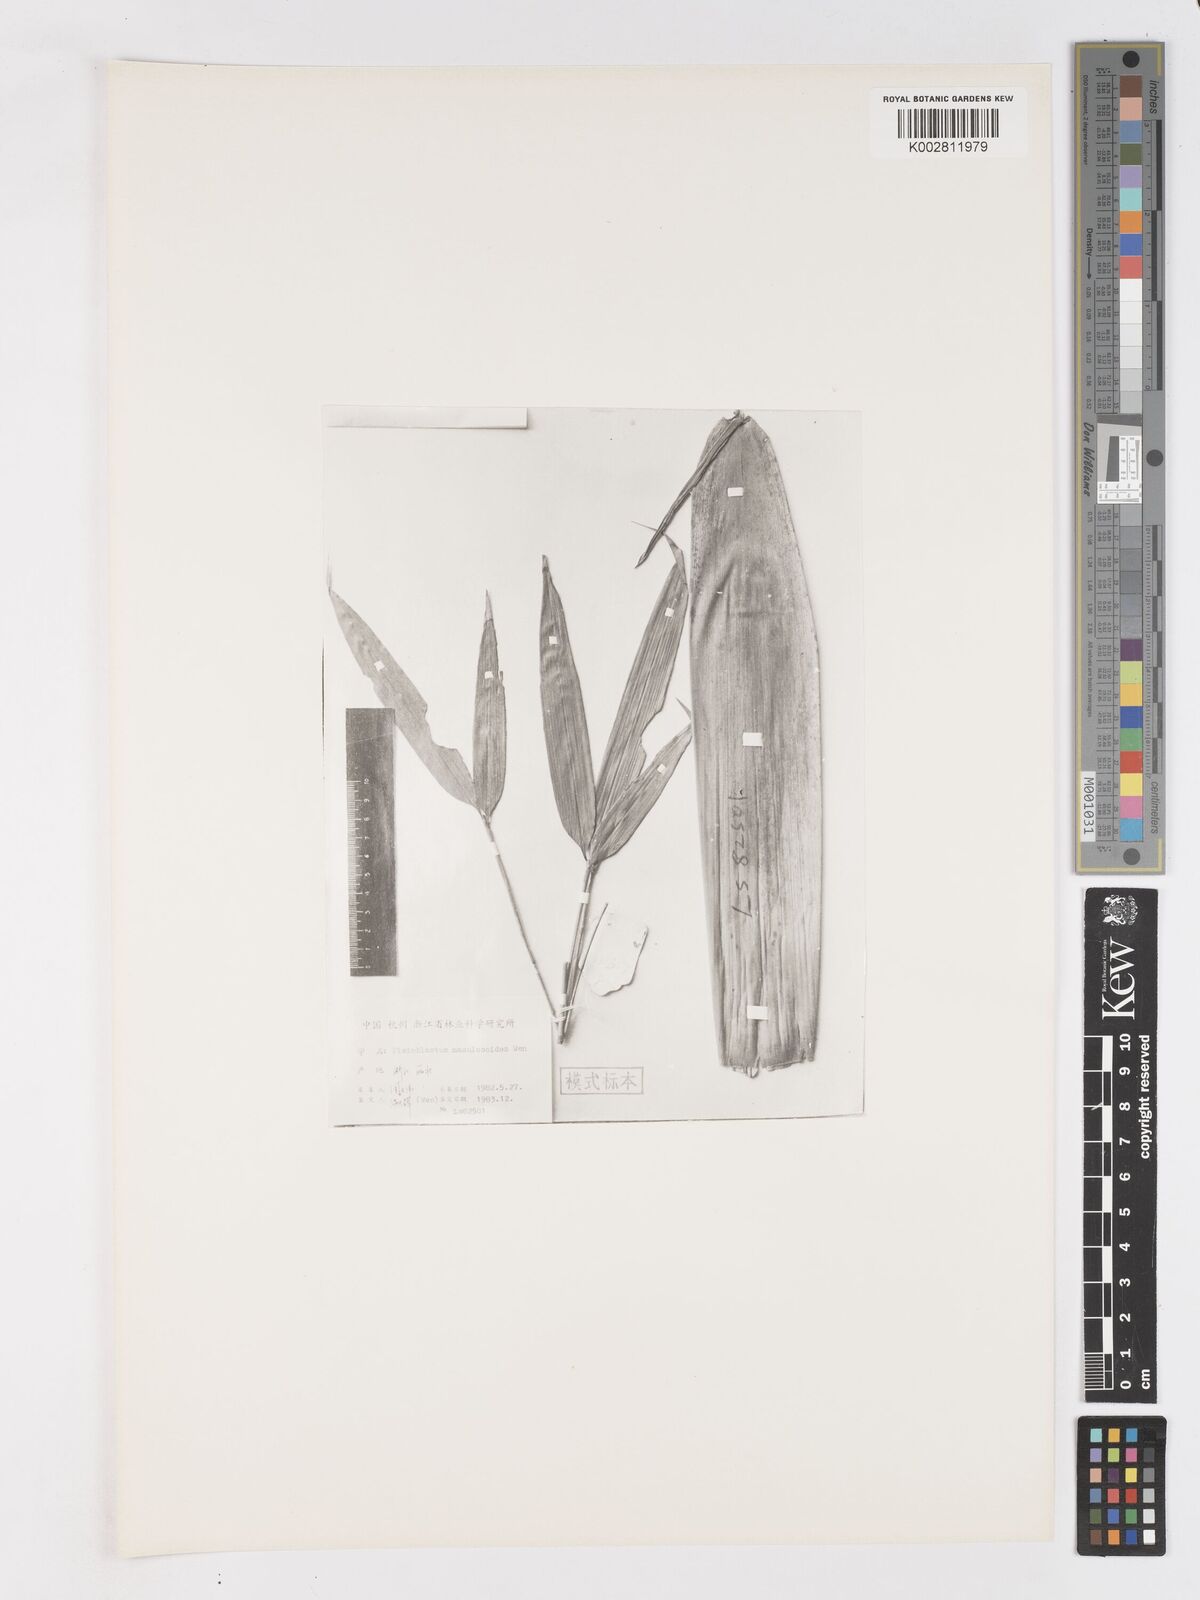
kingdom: Plantae
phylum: Tracheophyta
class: Liliopsida
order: Poales
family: Poaceae
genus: Oligostachyum
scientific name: Oligostachyum scabriflorum
